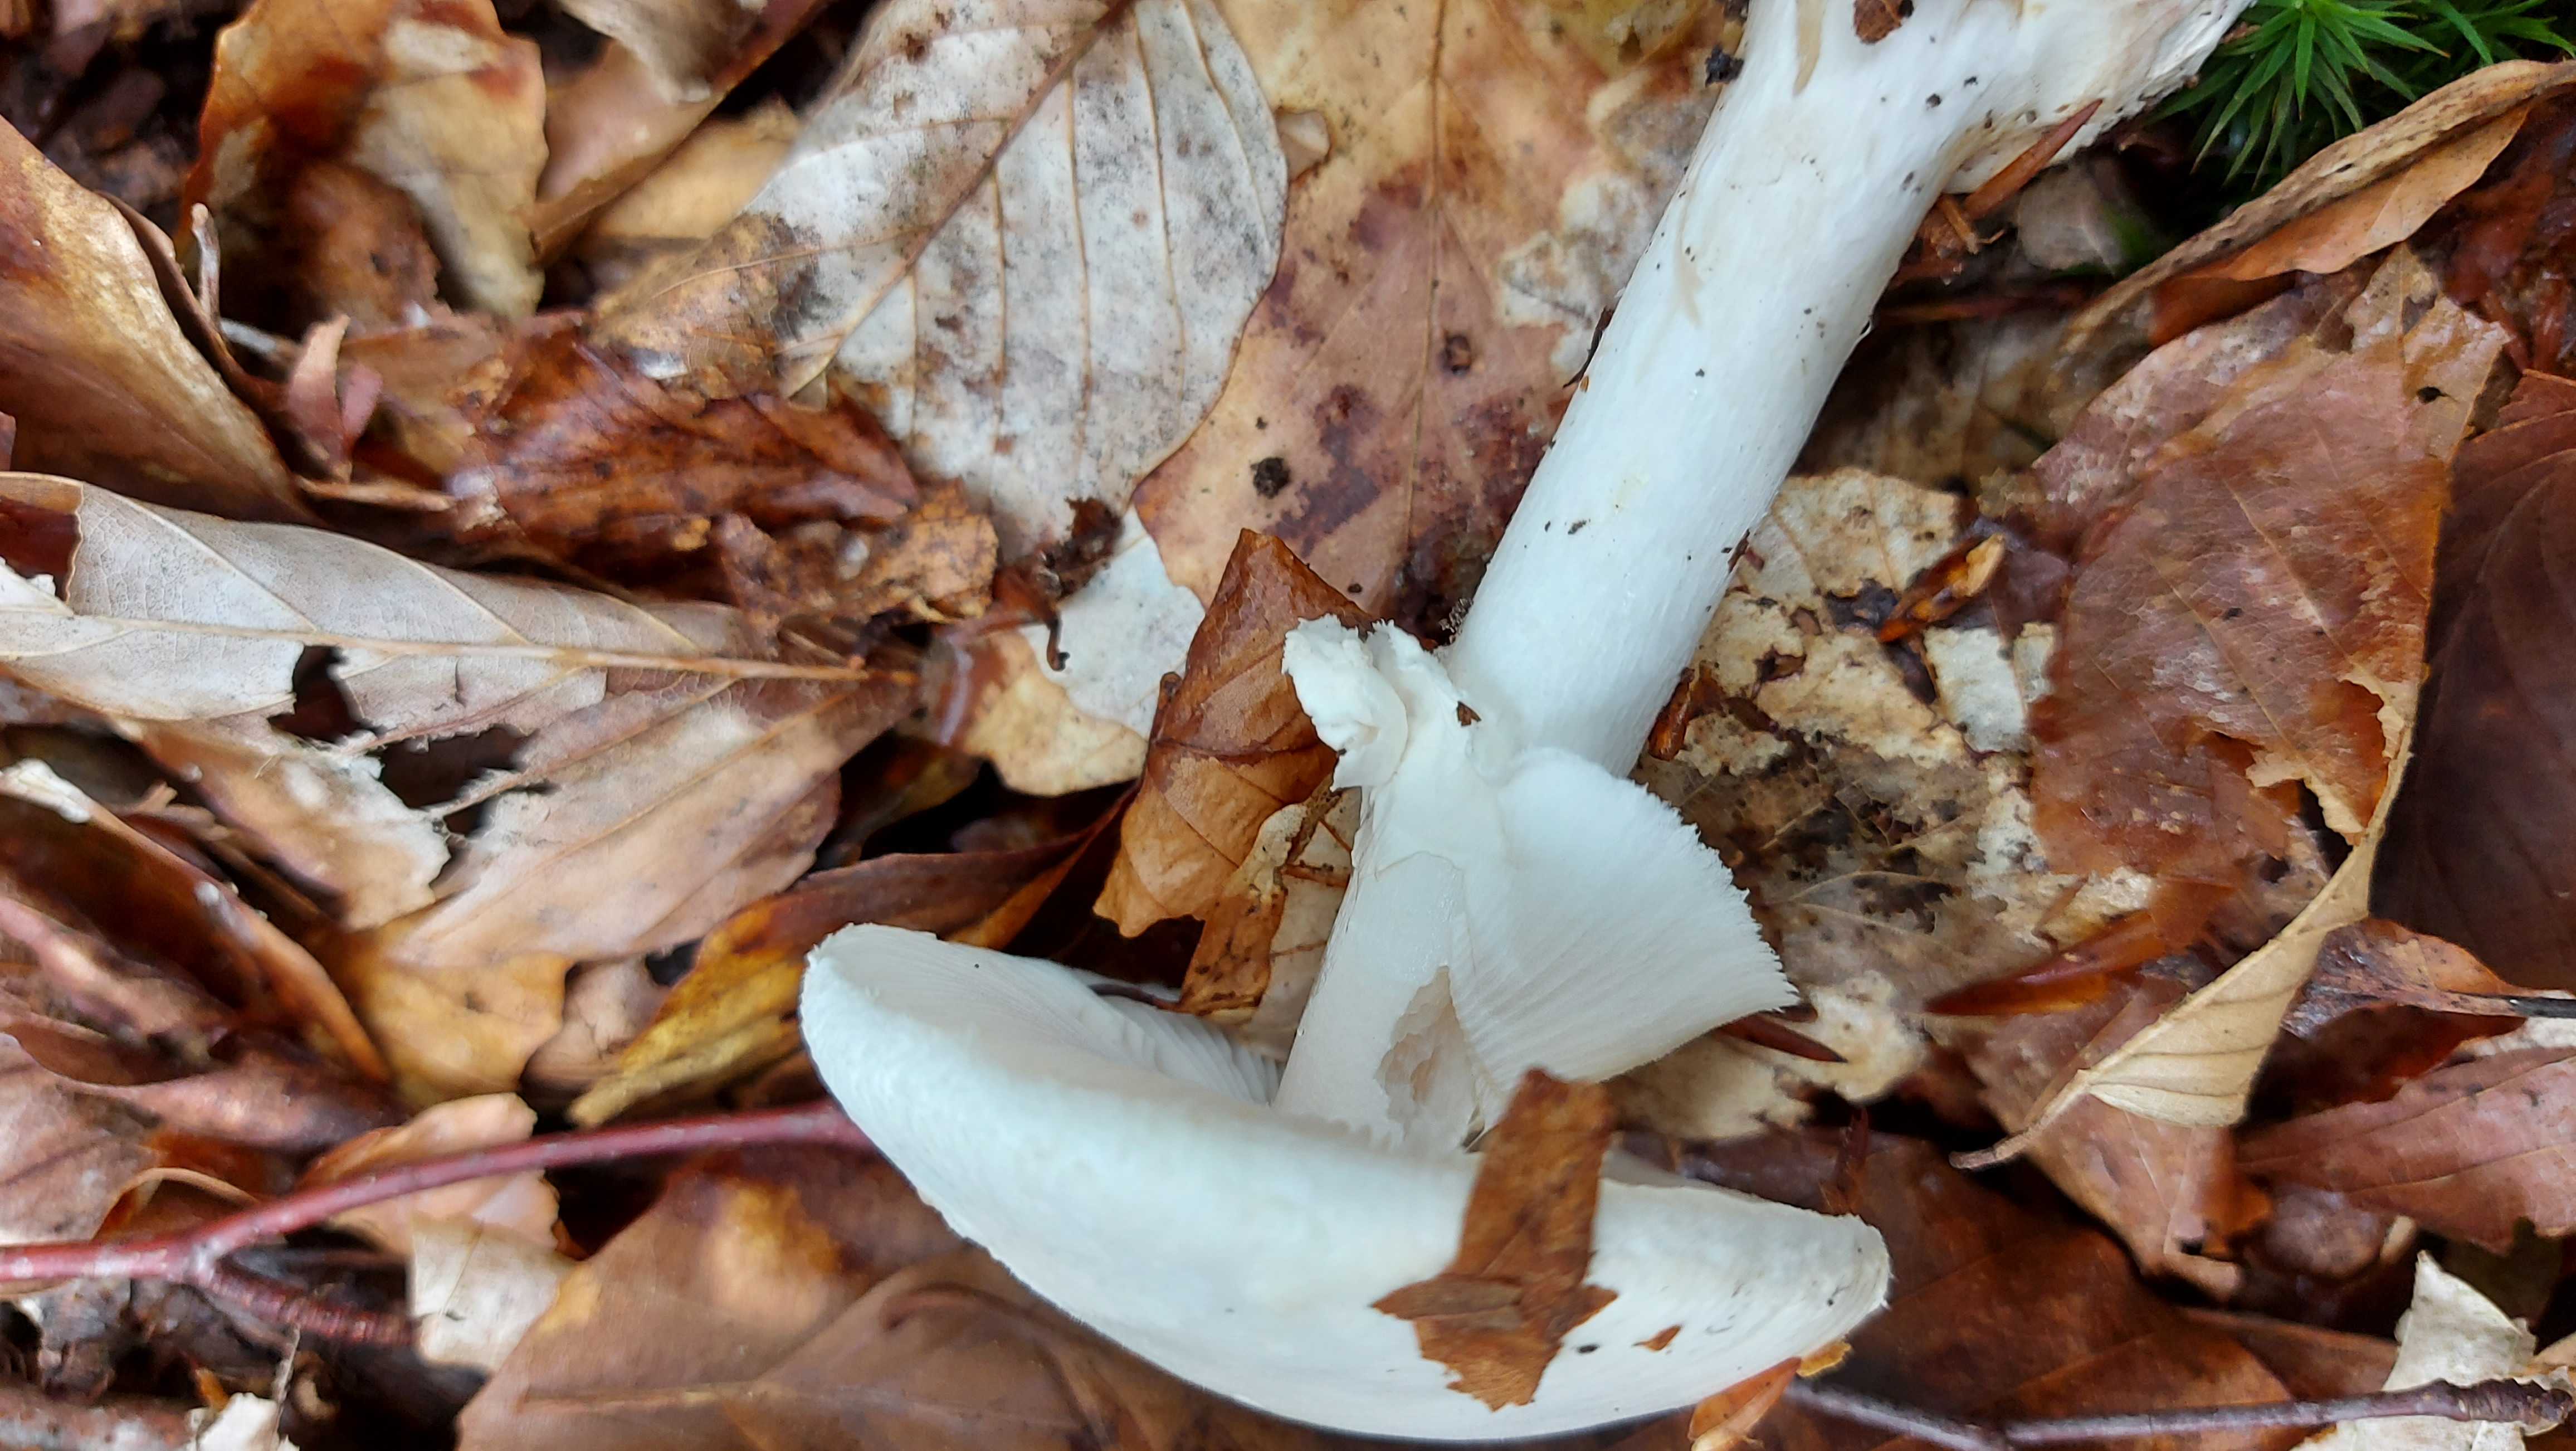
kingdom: Fungi
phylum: Basidiomycota
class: Agaricomycetes
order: Agaricales
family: Amanitaceae
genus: Amanita
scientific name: Amanita citrina
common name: kugleknoldet fluesvamp
